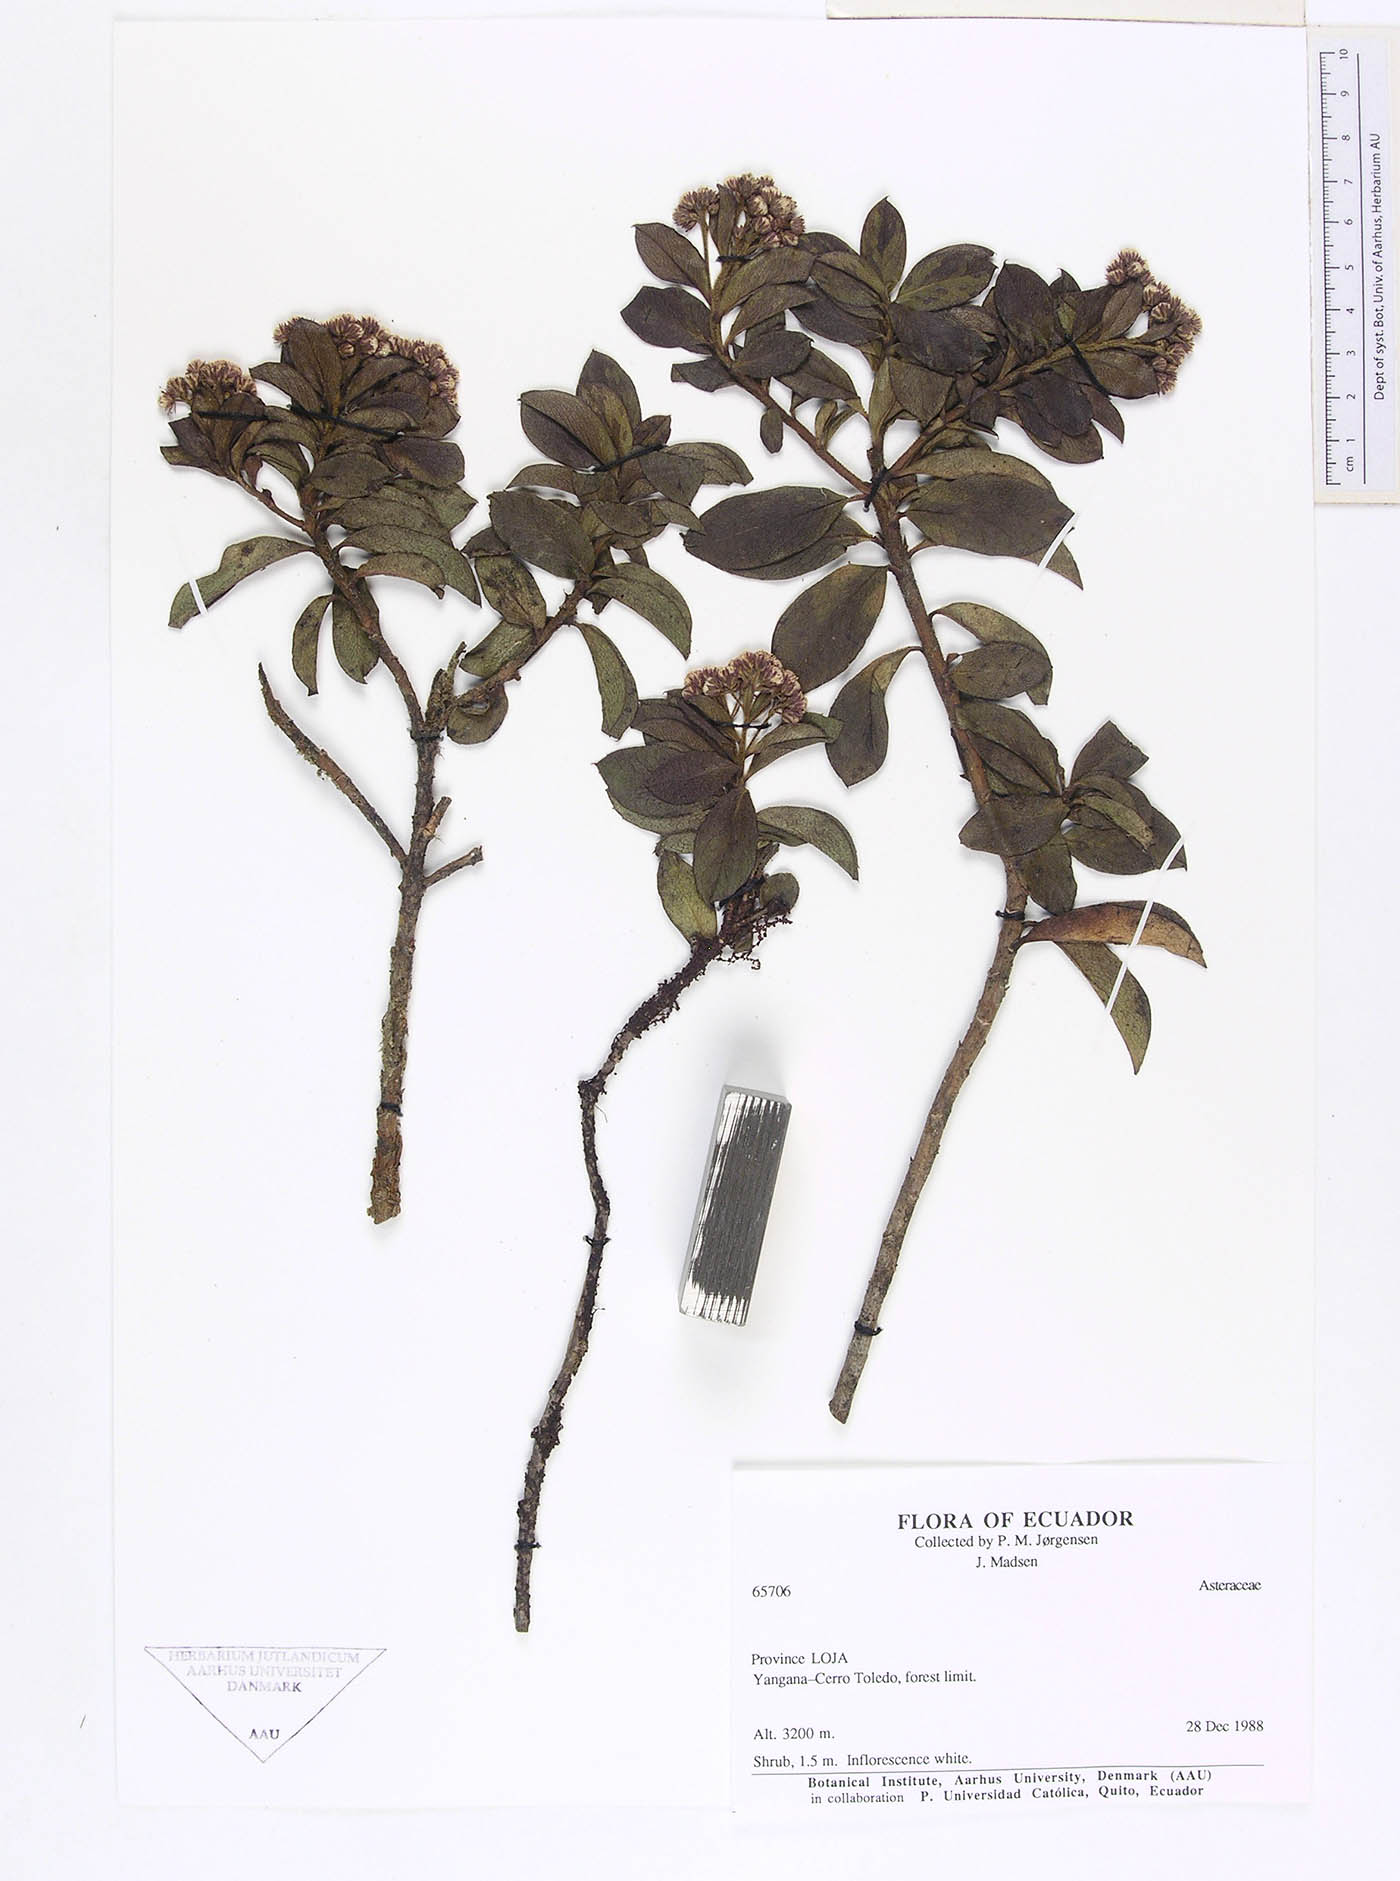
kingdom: Plantae
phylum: Tracheophyta
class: Magnoliopsida
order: Asterales
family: Asteraceae
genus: Baccharis
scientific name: Baccharis oblongifolia
